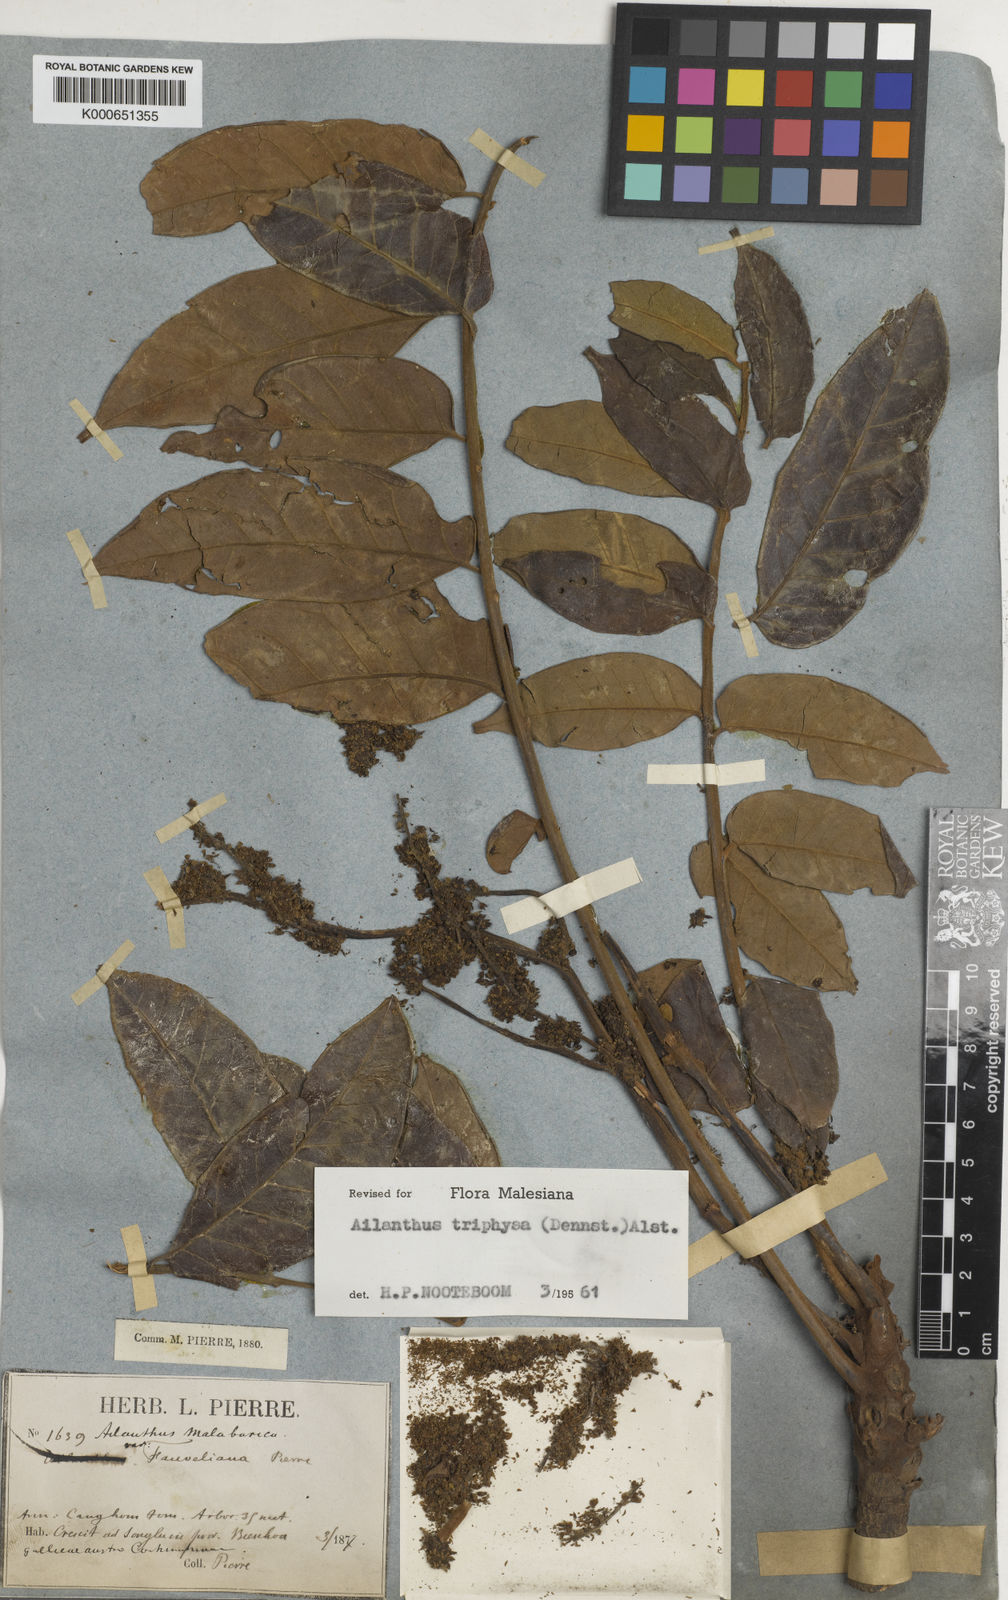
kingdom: Plantae
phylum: Tracheophyta
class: Magnoliopsida
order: Sapindales
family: Simaroubaceae
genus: Ailanthus
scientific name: Ailanthus triphysa
